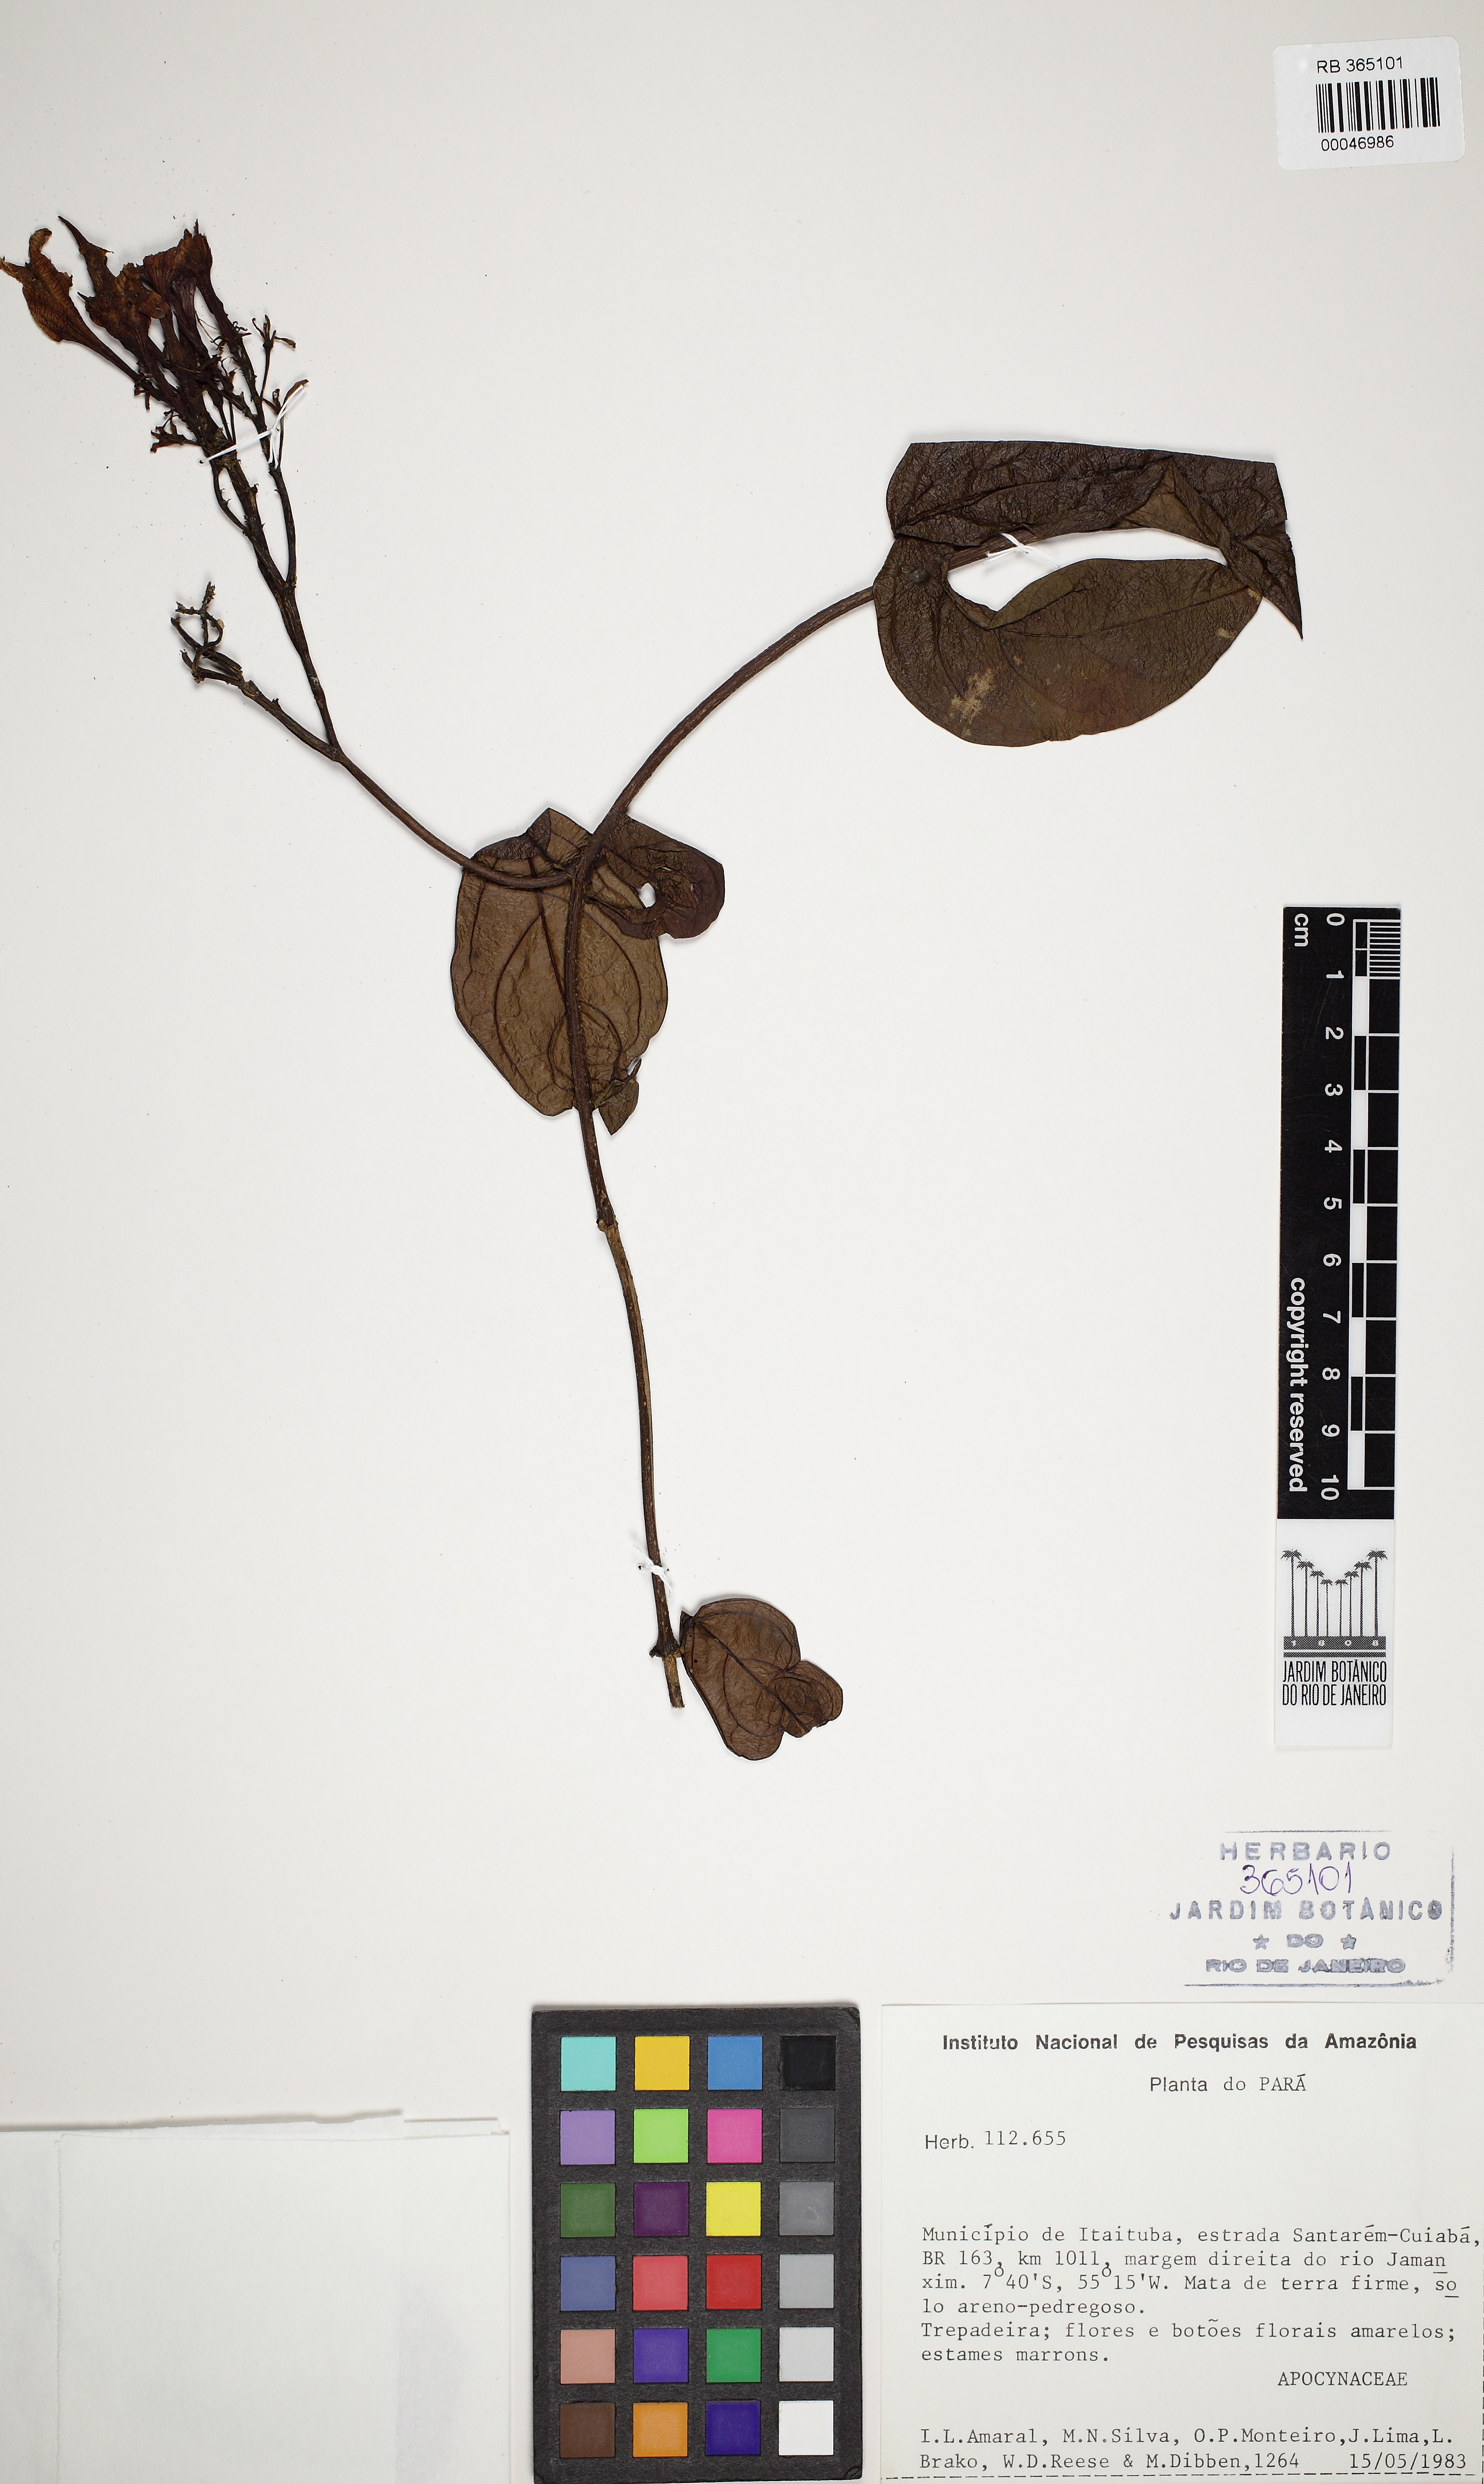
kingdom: Plantae
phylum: Tracheophyta
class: Magnoliopsida
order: Gentianales
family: Apocynaceae
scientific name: Apocynaceae
